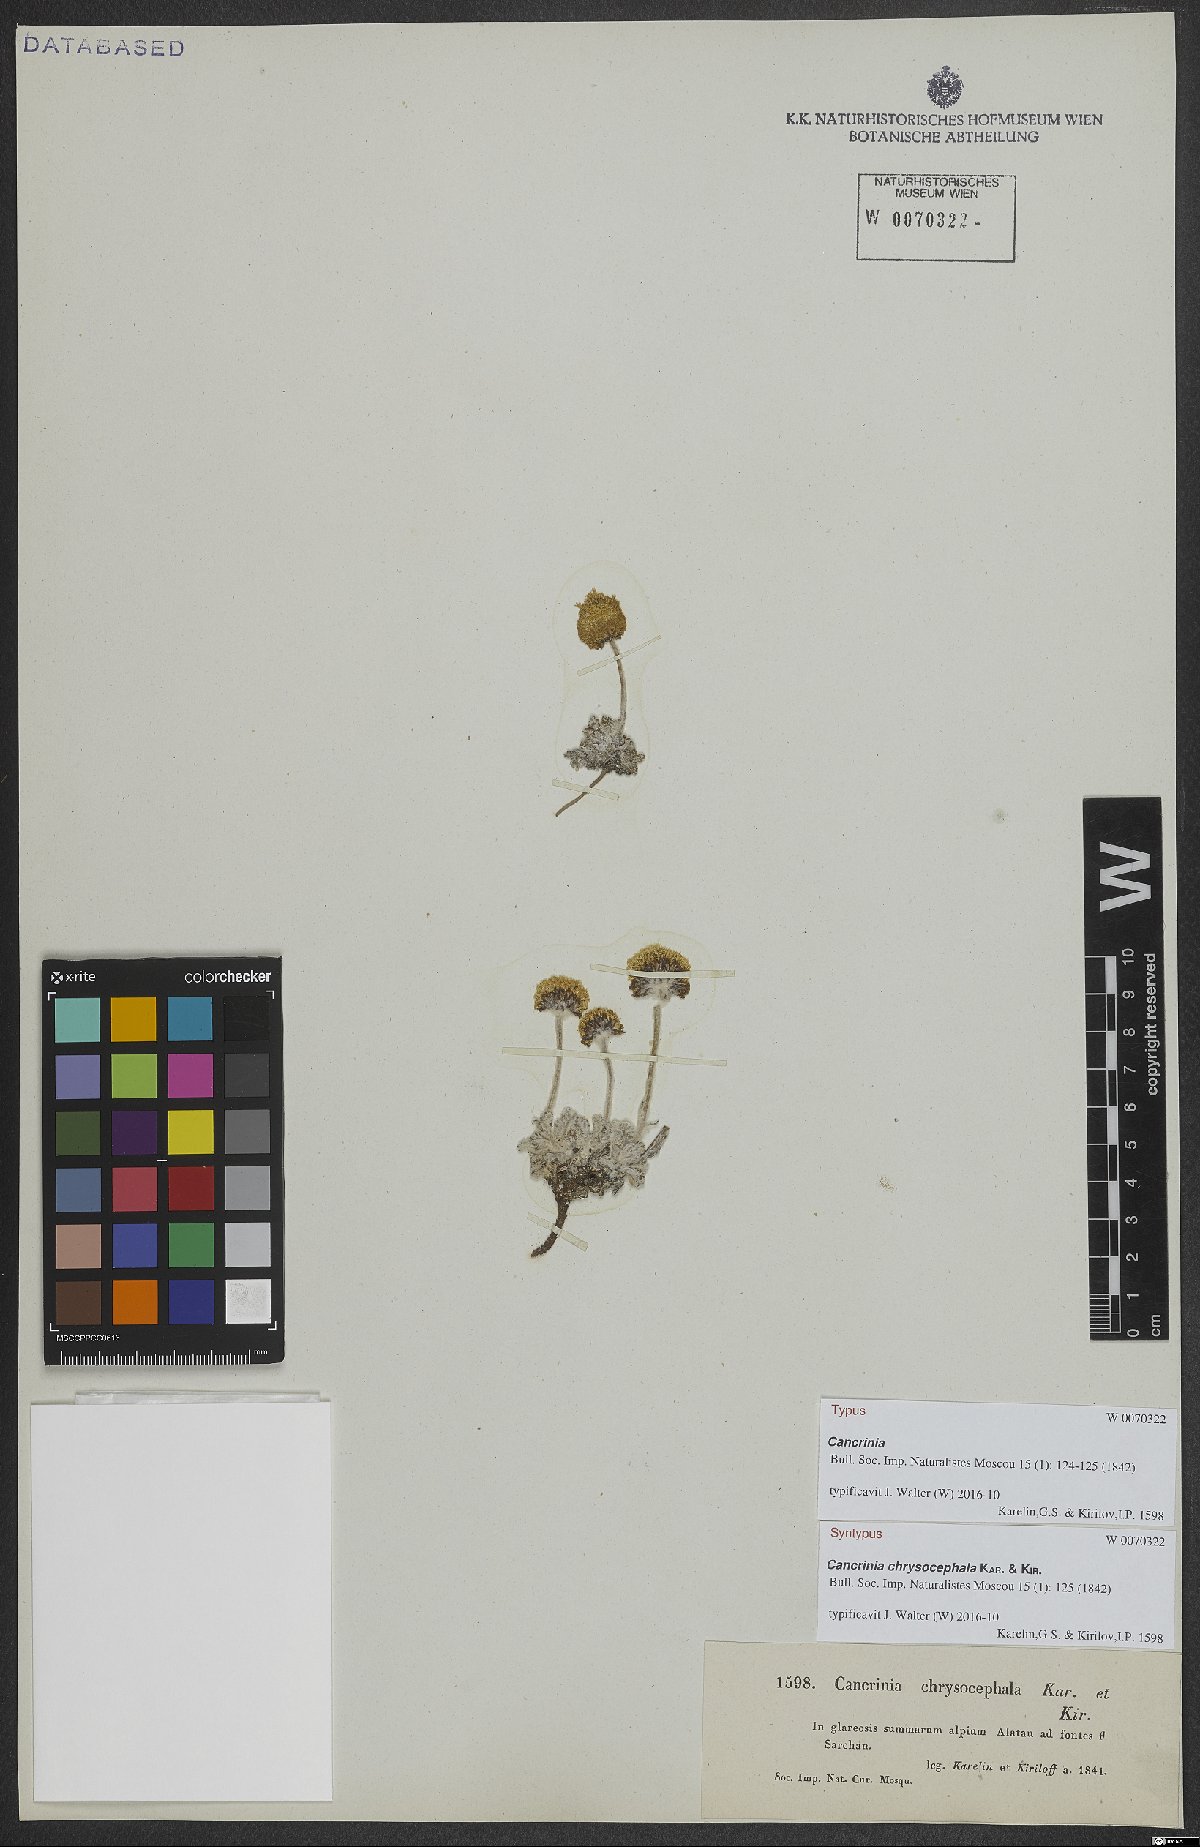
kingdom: Plantae
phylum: Tracheophyta
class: Magnoliopsida
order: Asterales
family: Asteraceae
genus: Cancrinia
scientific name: Cancrinia chrysocephala
